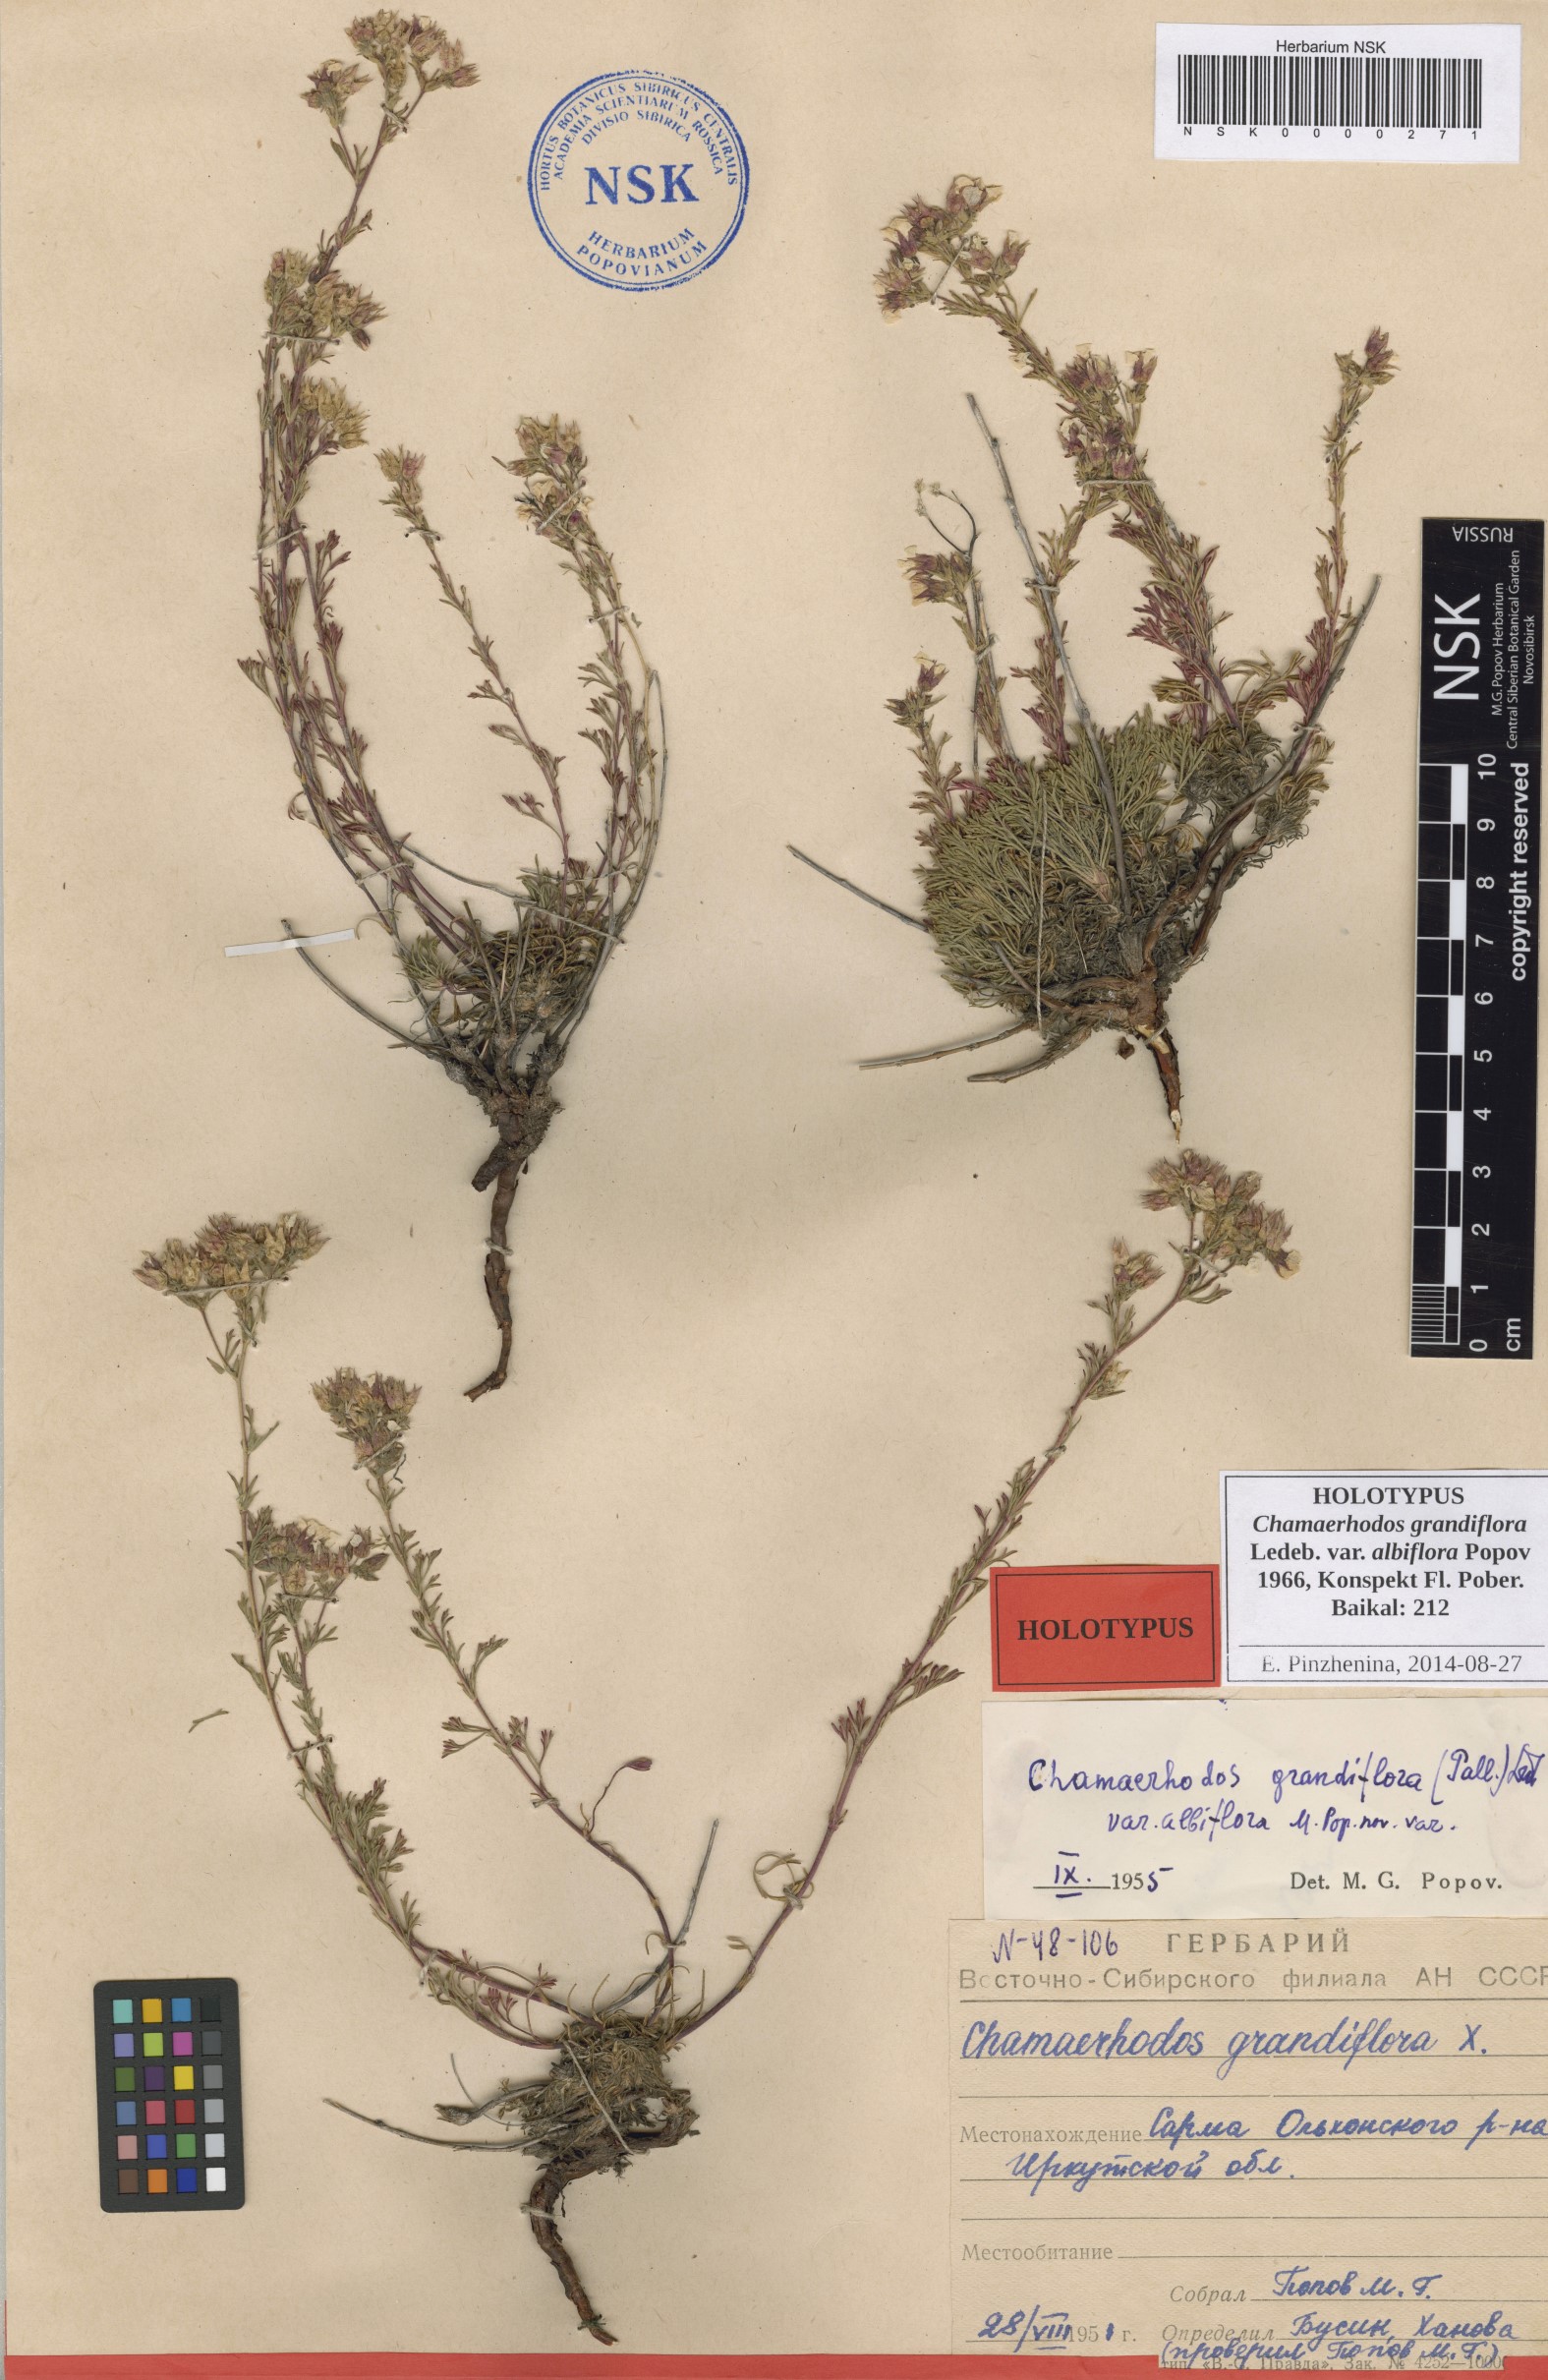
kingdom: Plantae
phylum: Tracheophyta
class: Magnoliopsida
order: Rosales
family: Rosaceae
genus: Chamaerhodos
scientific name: Chamaerhodos grandiflora
